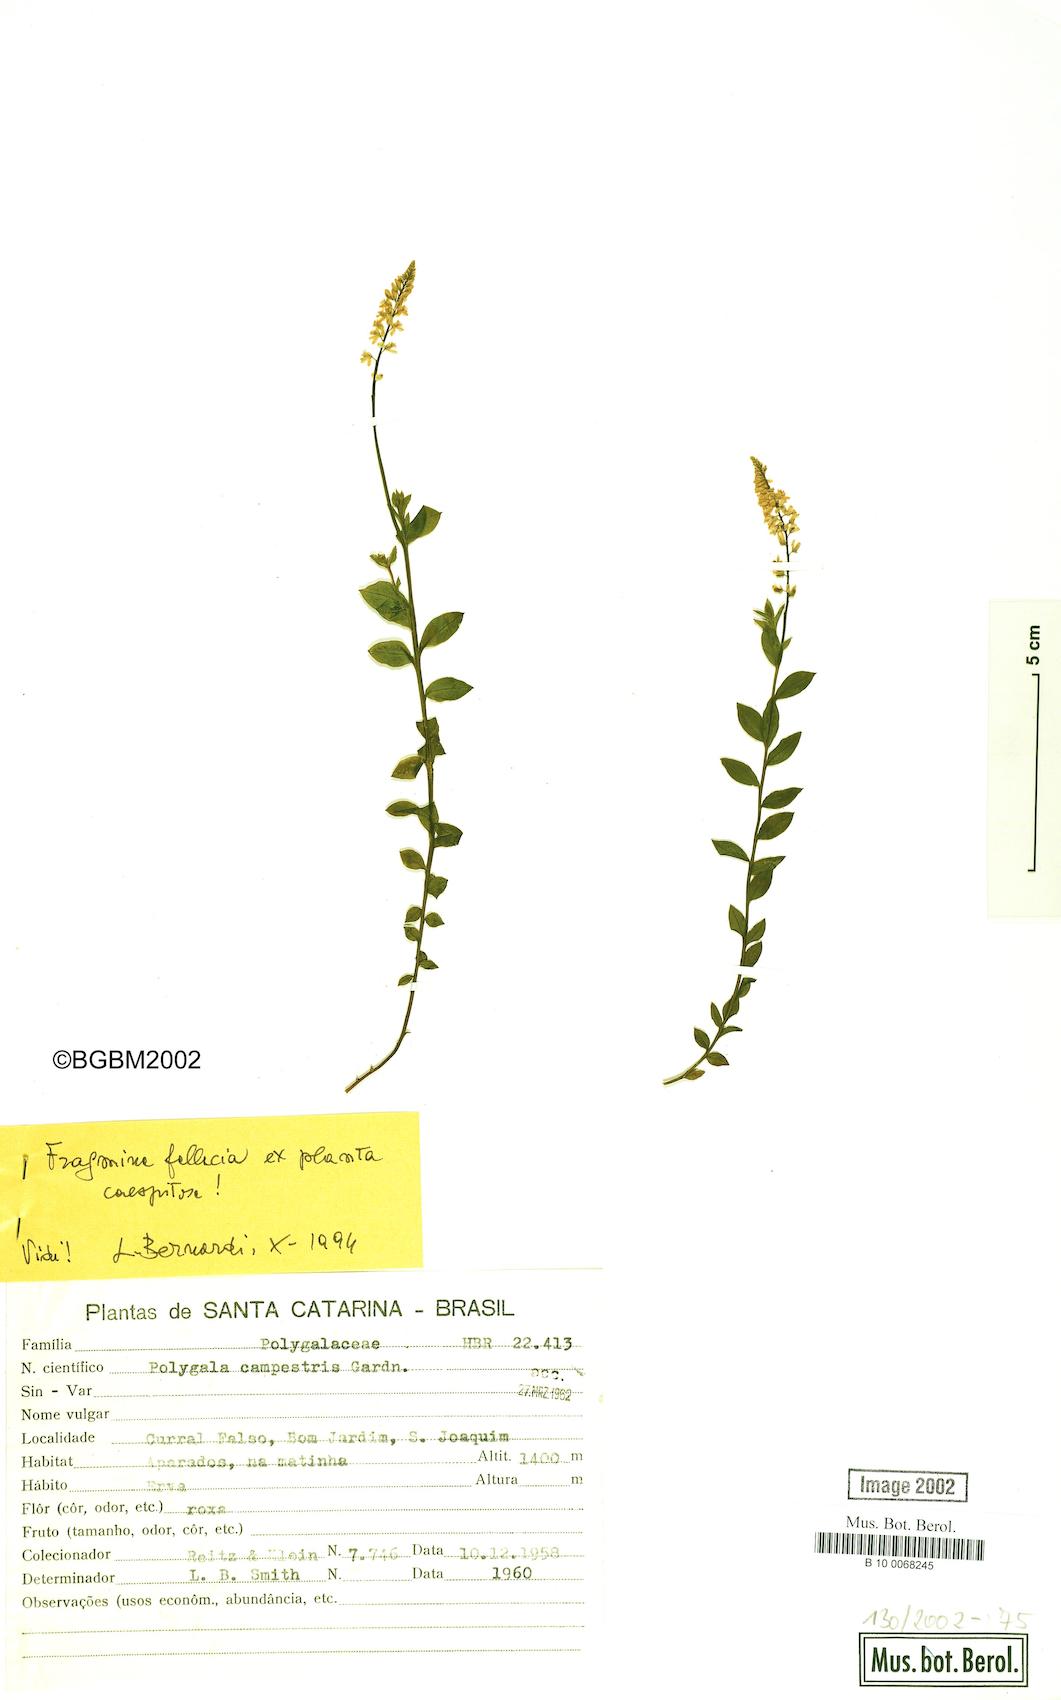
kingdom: Plantae
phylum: Tracheophyta
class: Magnoliopsida
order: Fabales
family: Polygalaceae
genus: Polygala
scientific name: Polygala campestris
